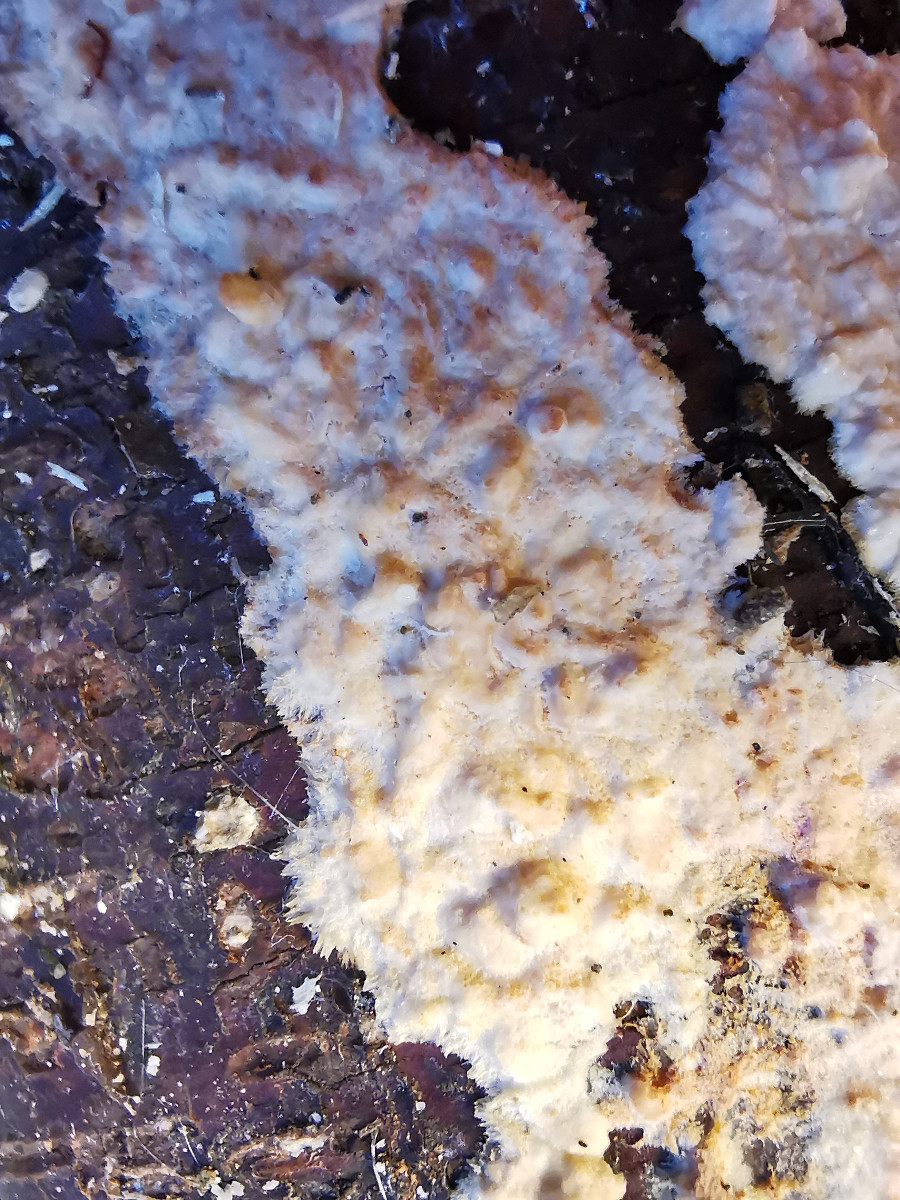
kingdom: Fungi
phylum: Basidiomycota
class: Agaricomycetes
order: Agaricales
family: Physalacriaceae
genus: Cylindrobasidium
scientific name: Cylindrobasidium evolvens
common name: sprækkehinde
